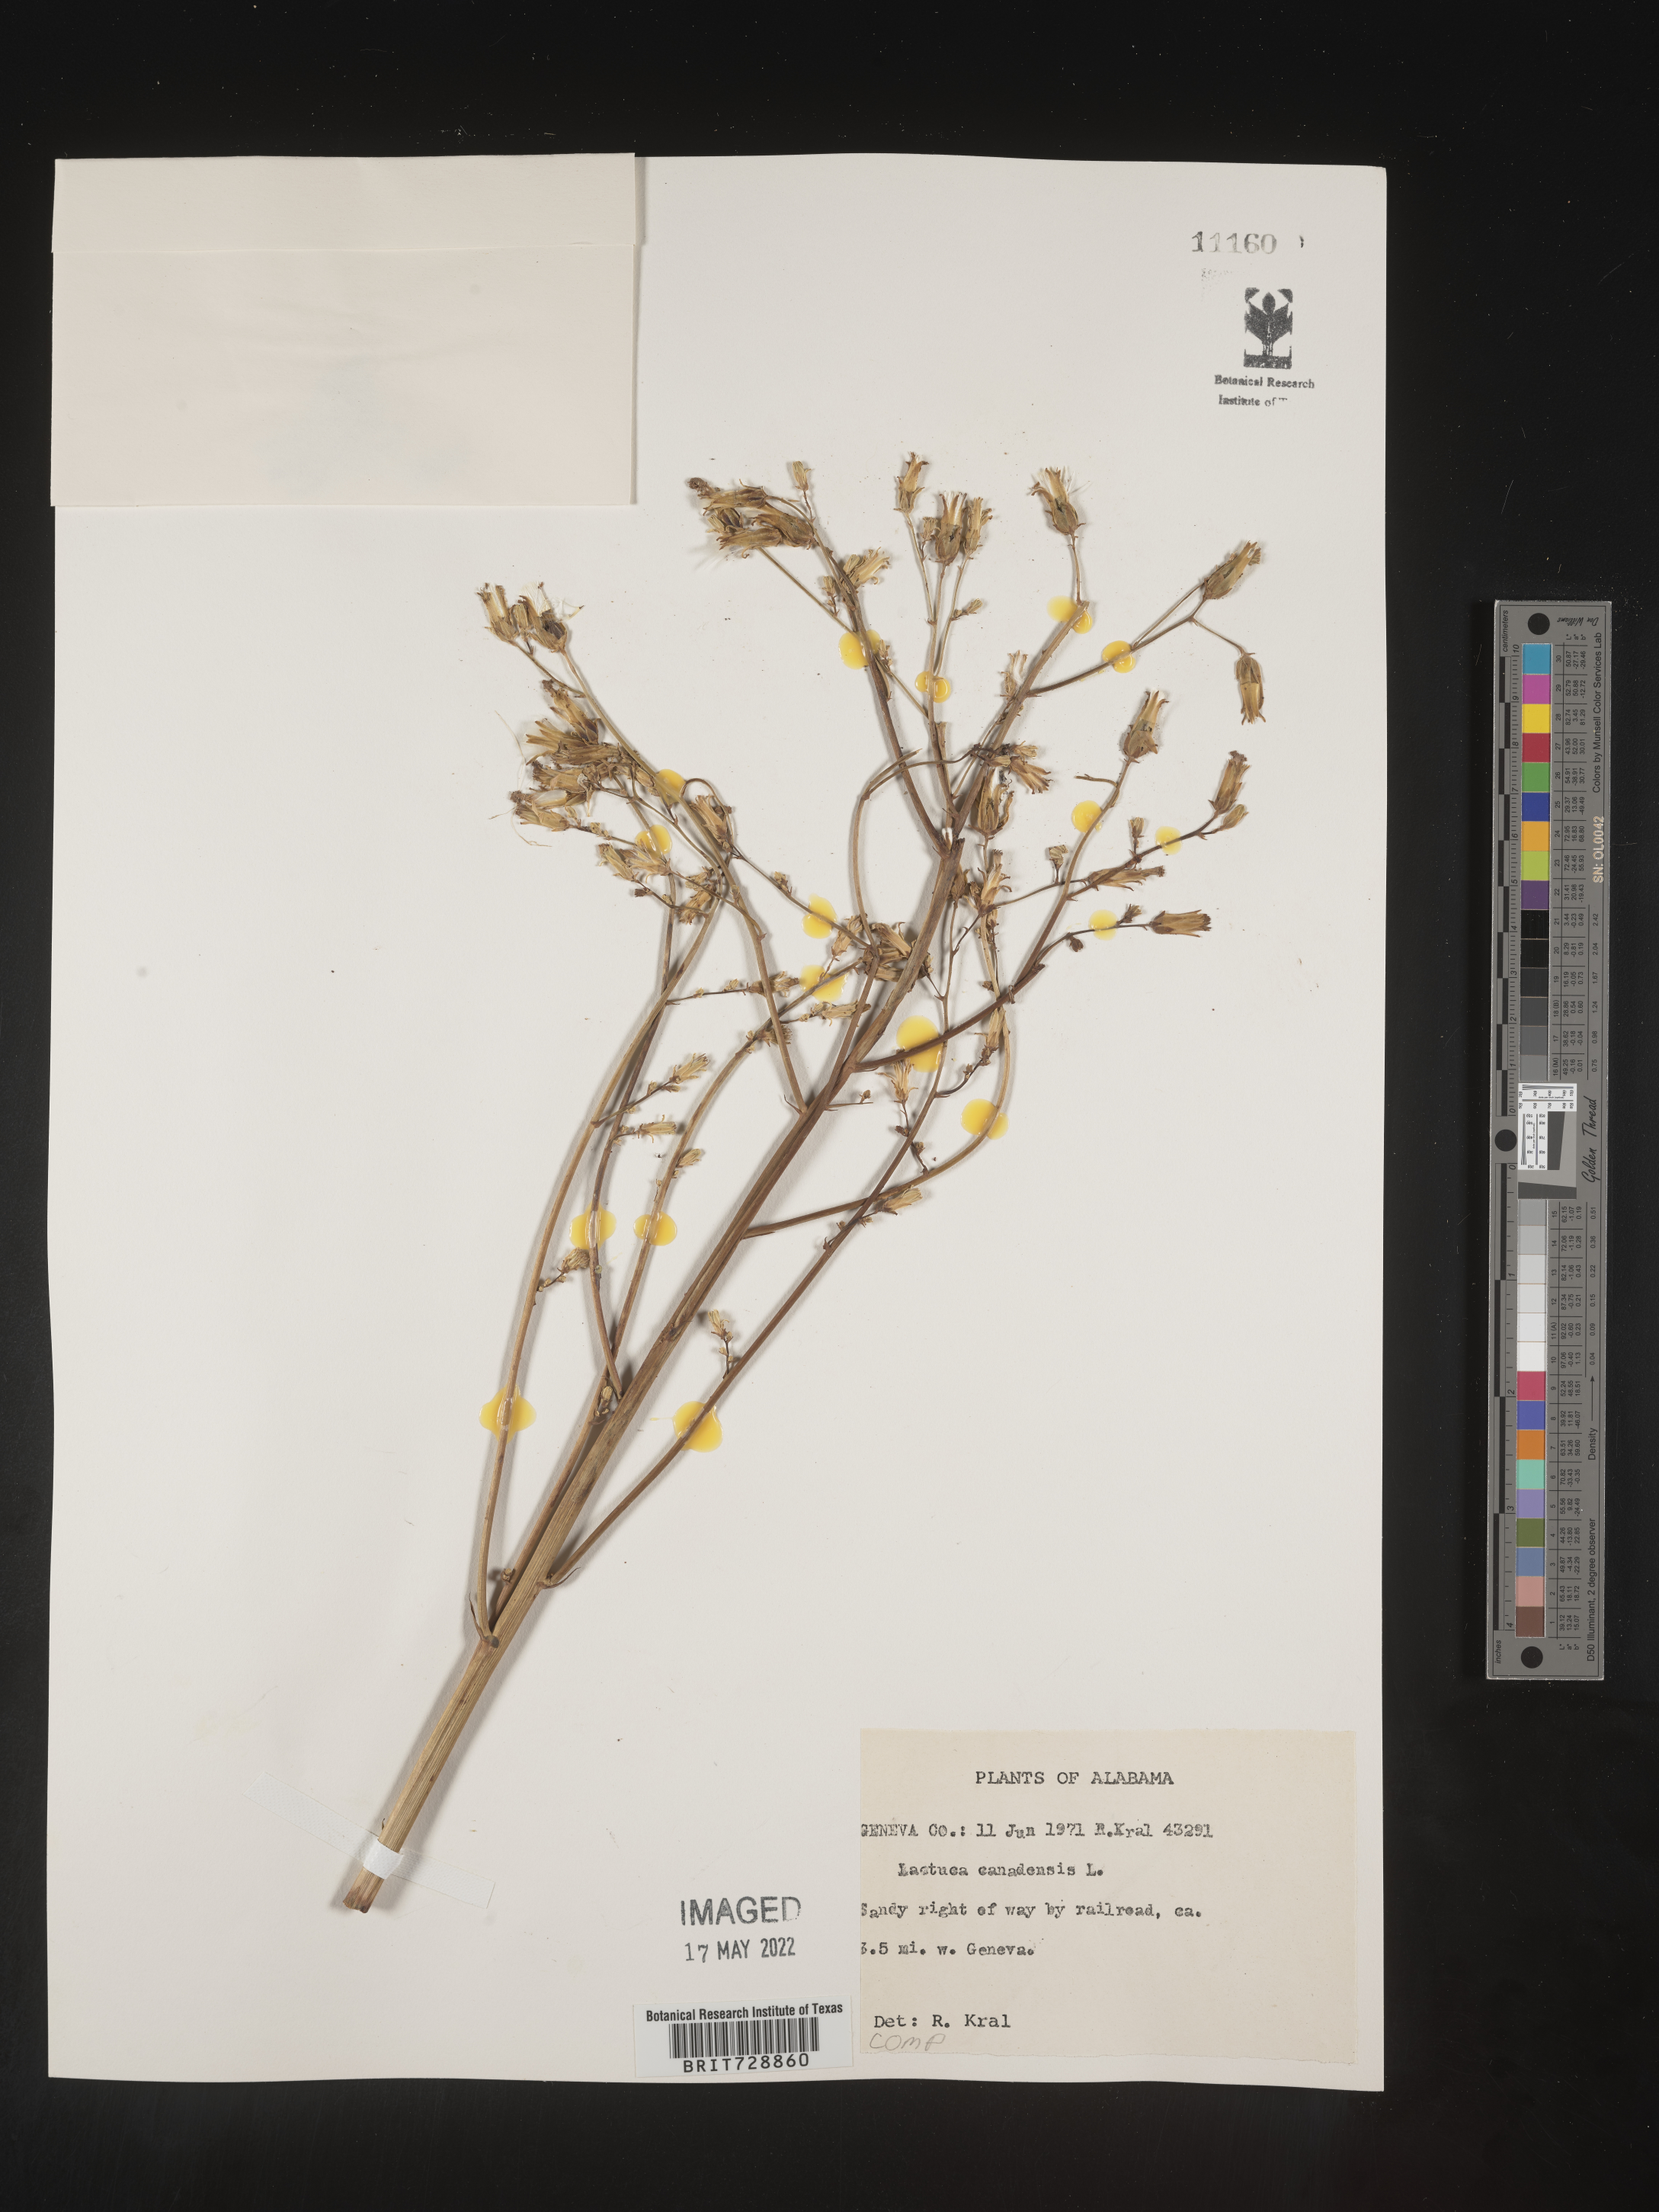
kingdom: Plantae
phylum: Tracheophyta
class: Magnoliopsida
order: Asterales
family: Asteraceae
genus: Lactuca
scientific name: Lactuca canadensis
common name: Canada lettuce
